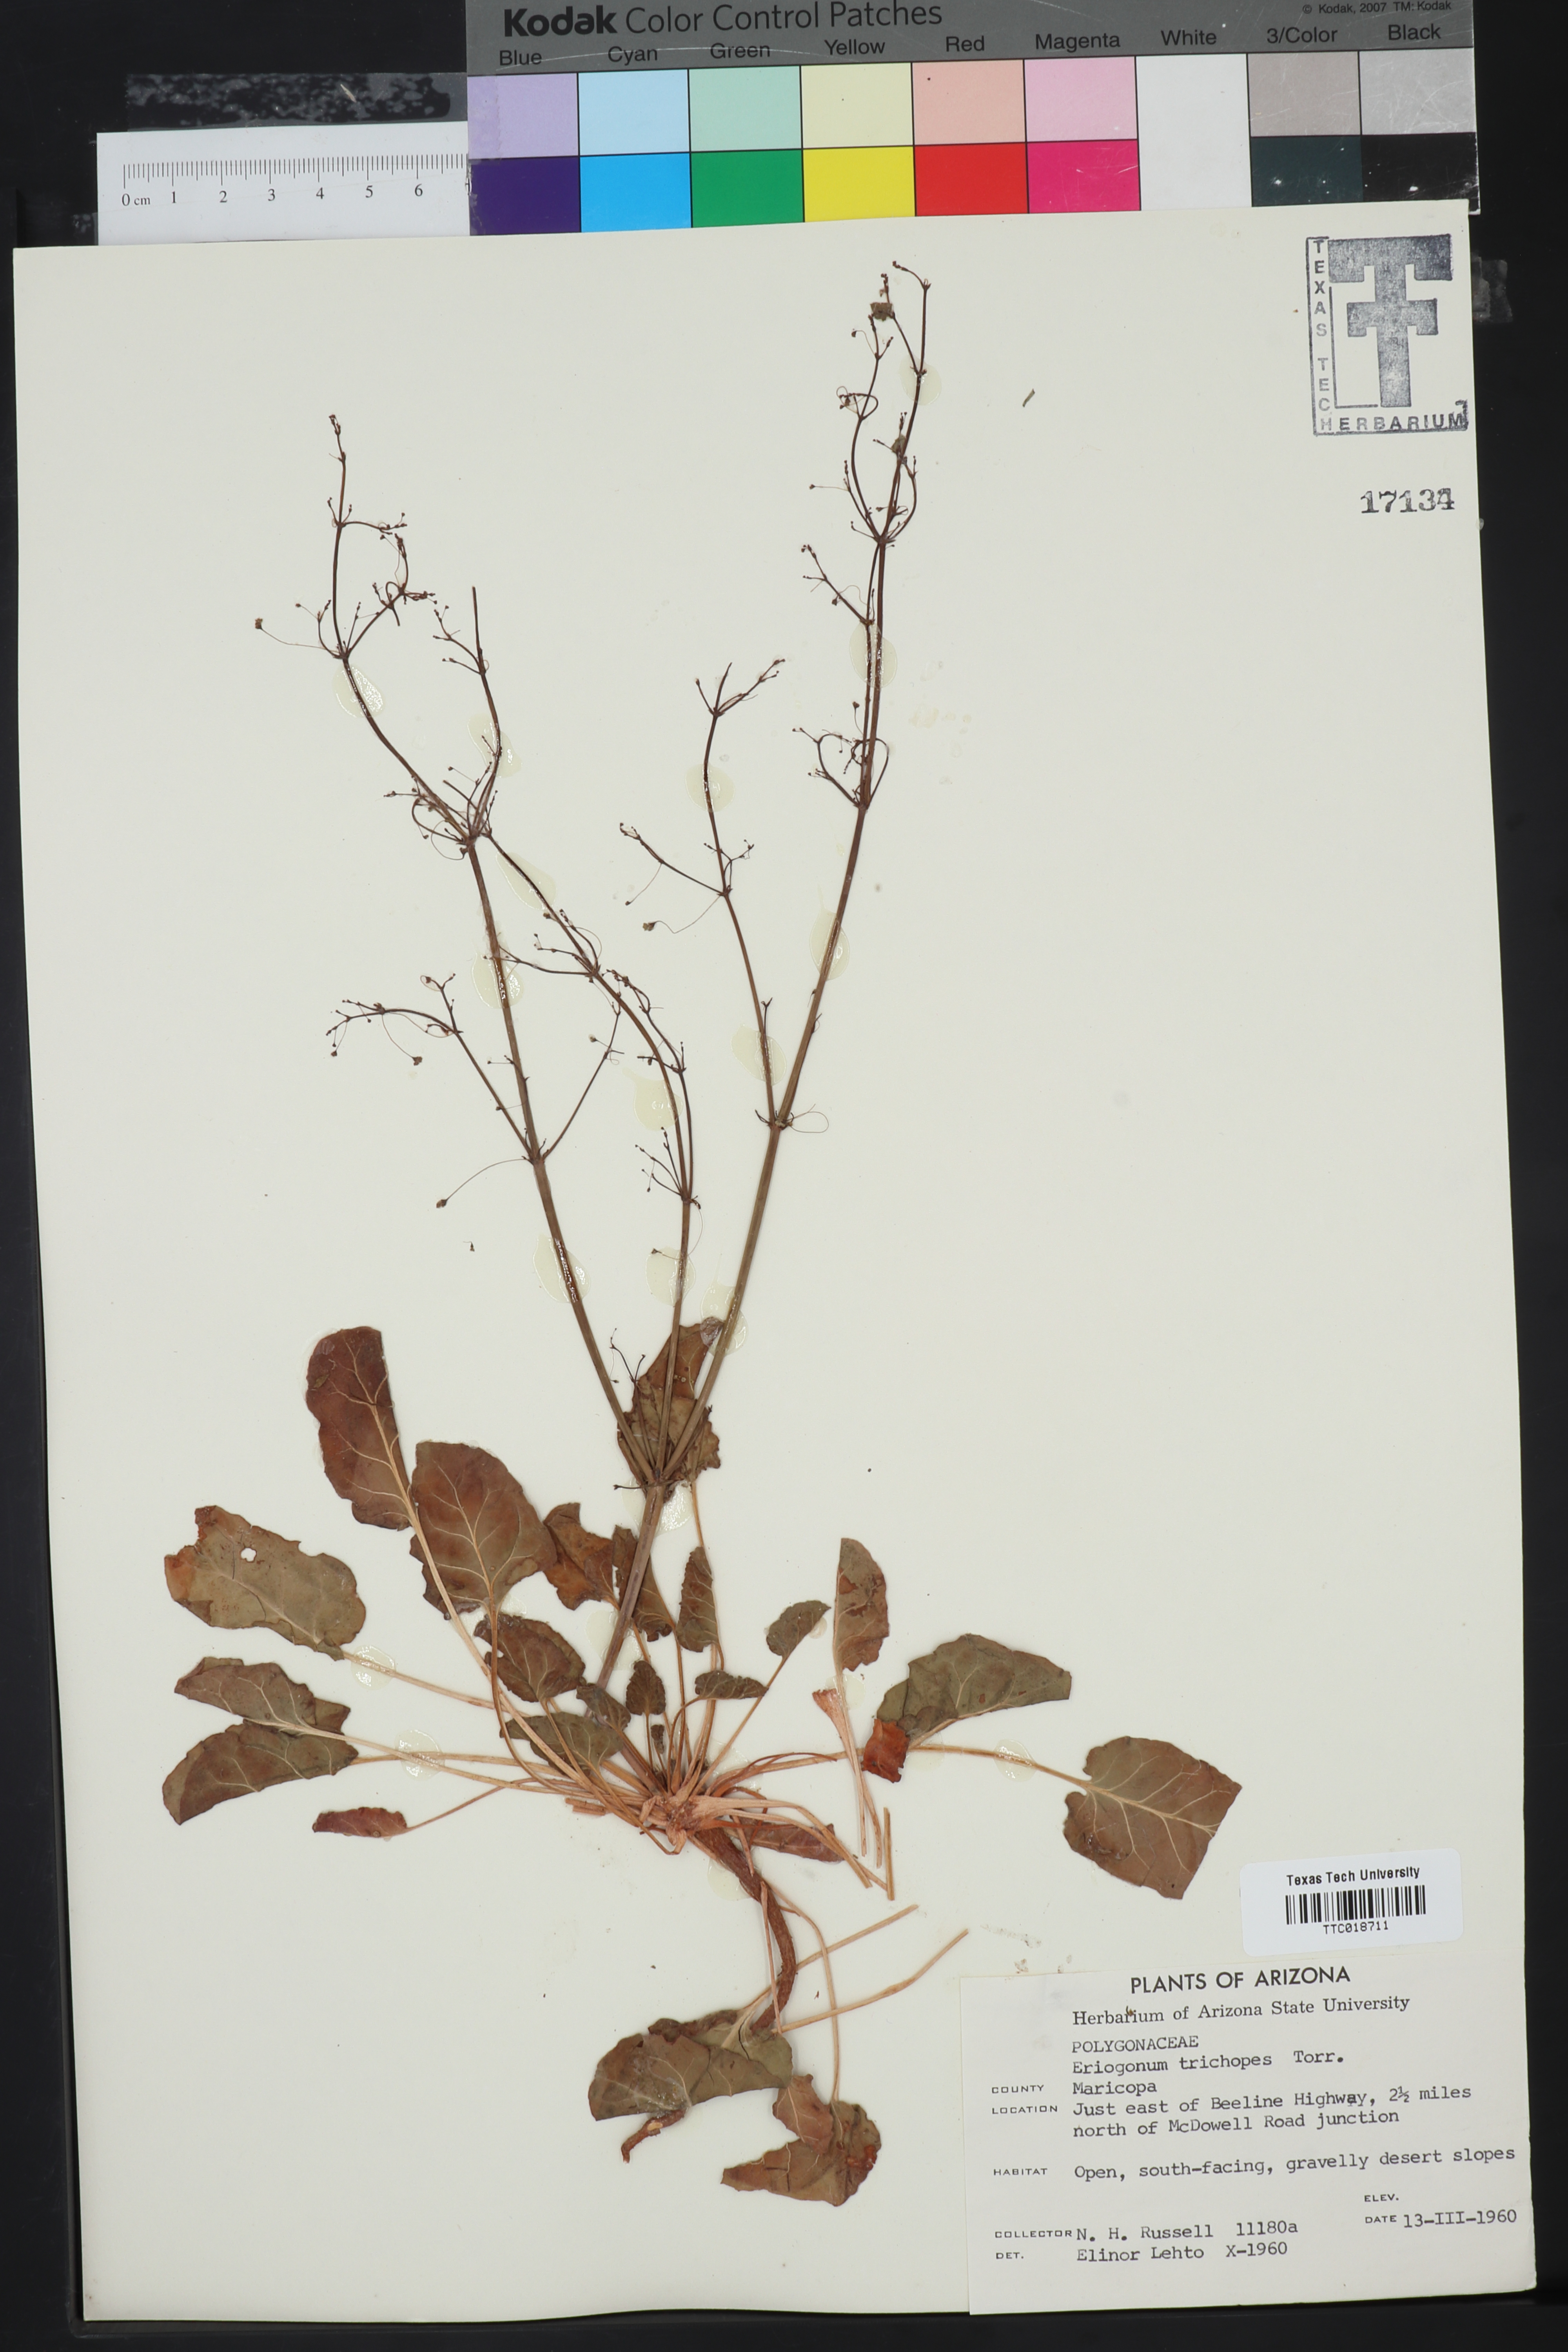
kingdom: Plantae
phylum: Tracheophyta
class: Magnoliopsida
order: Caryophyllales
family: Polygonaceae
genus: Eriogonum
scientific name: Eriogonum trichopes
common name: Little desert trumpet
